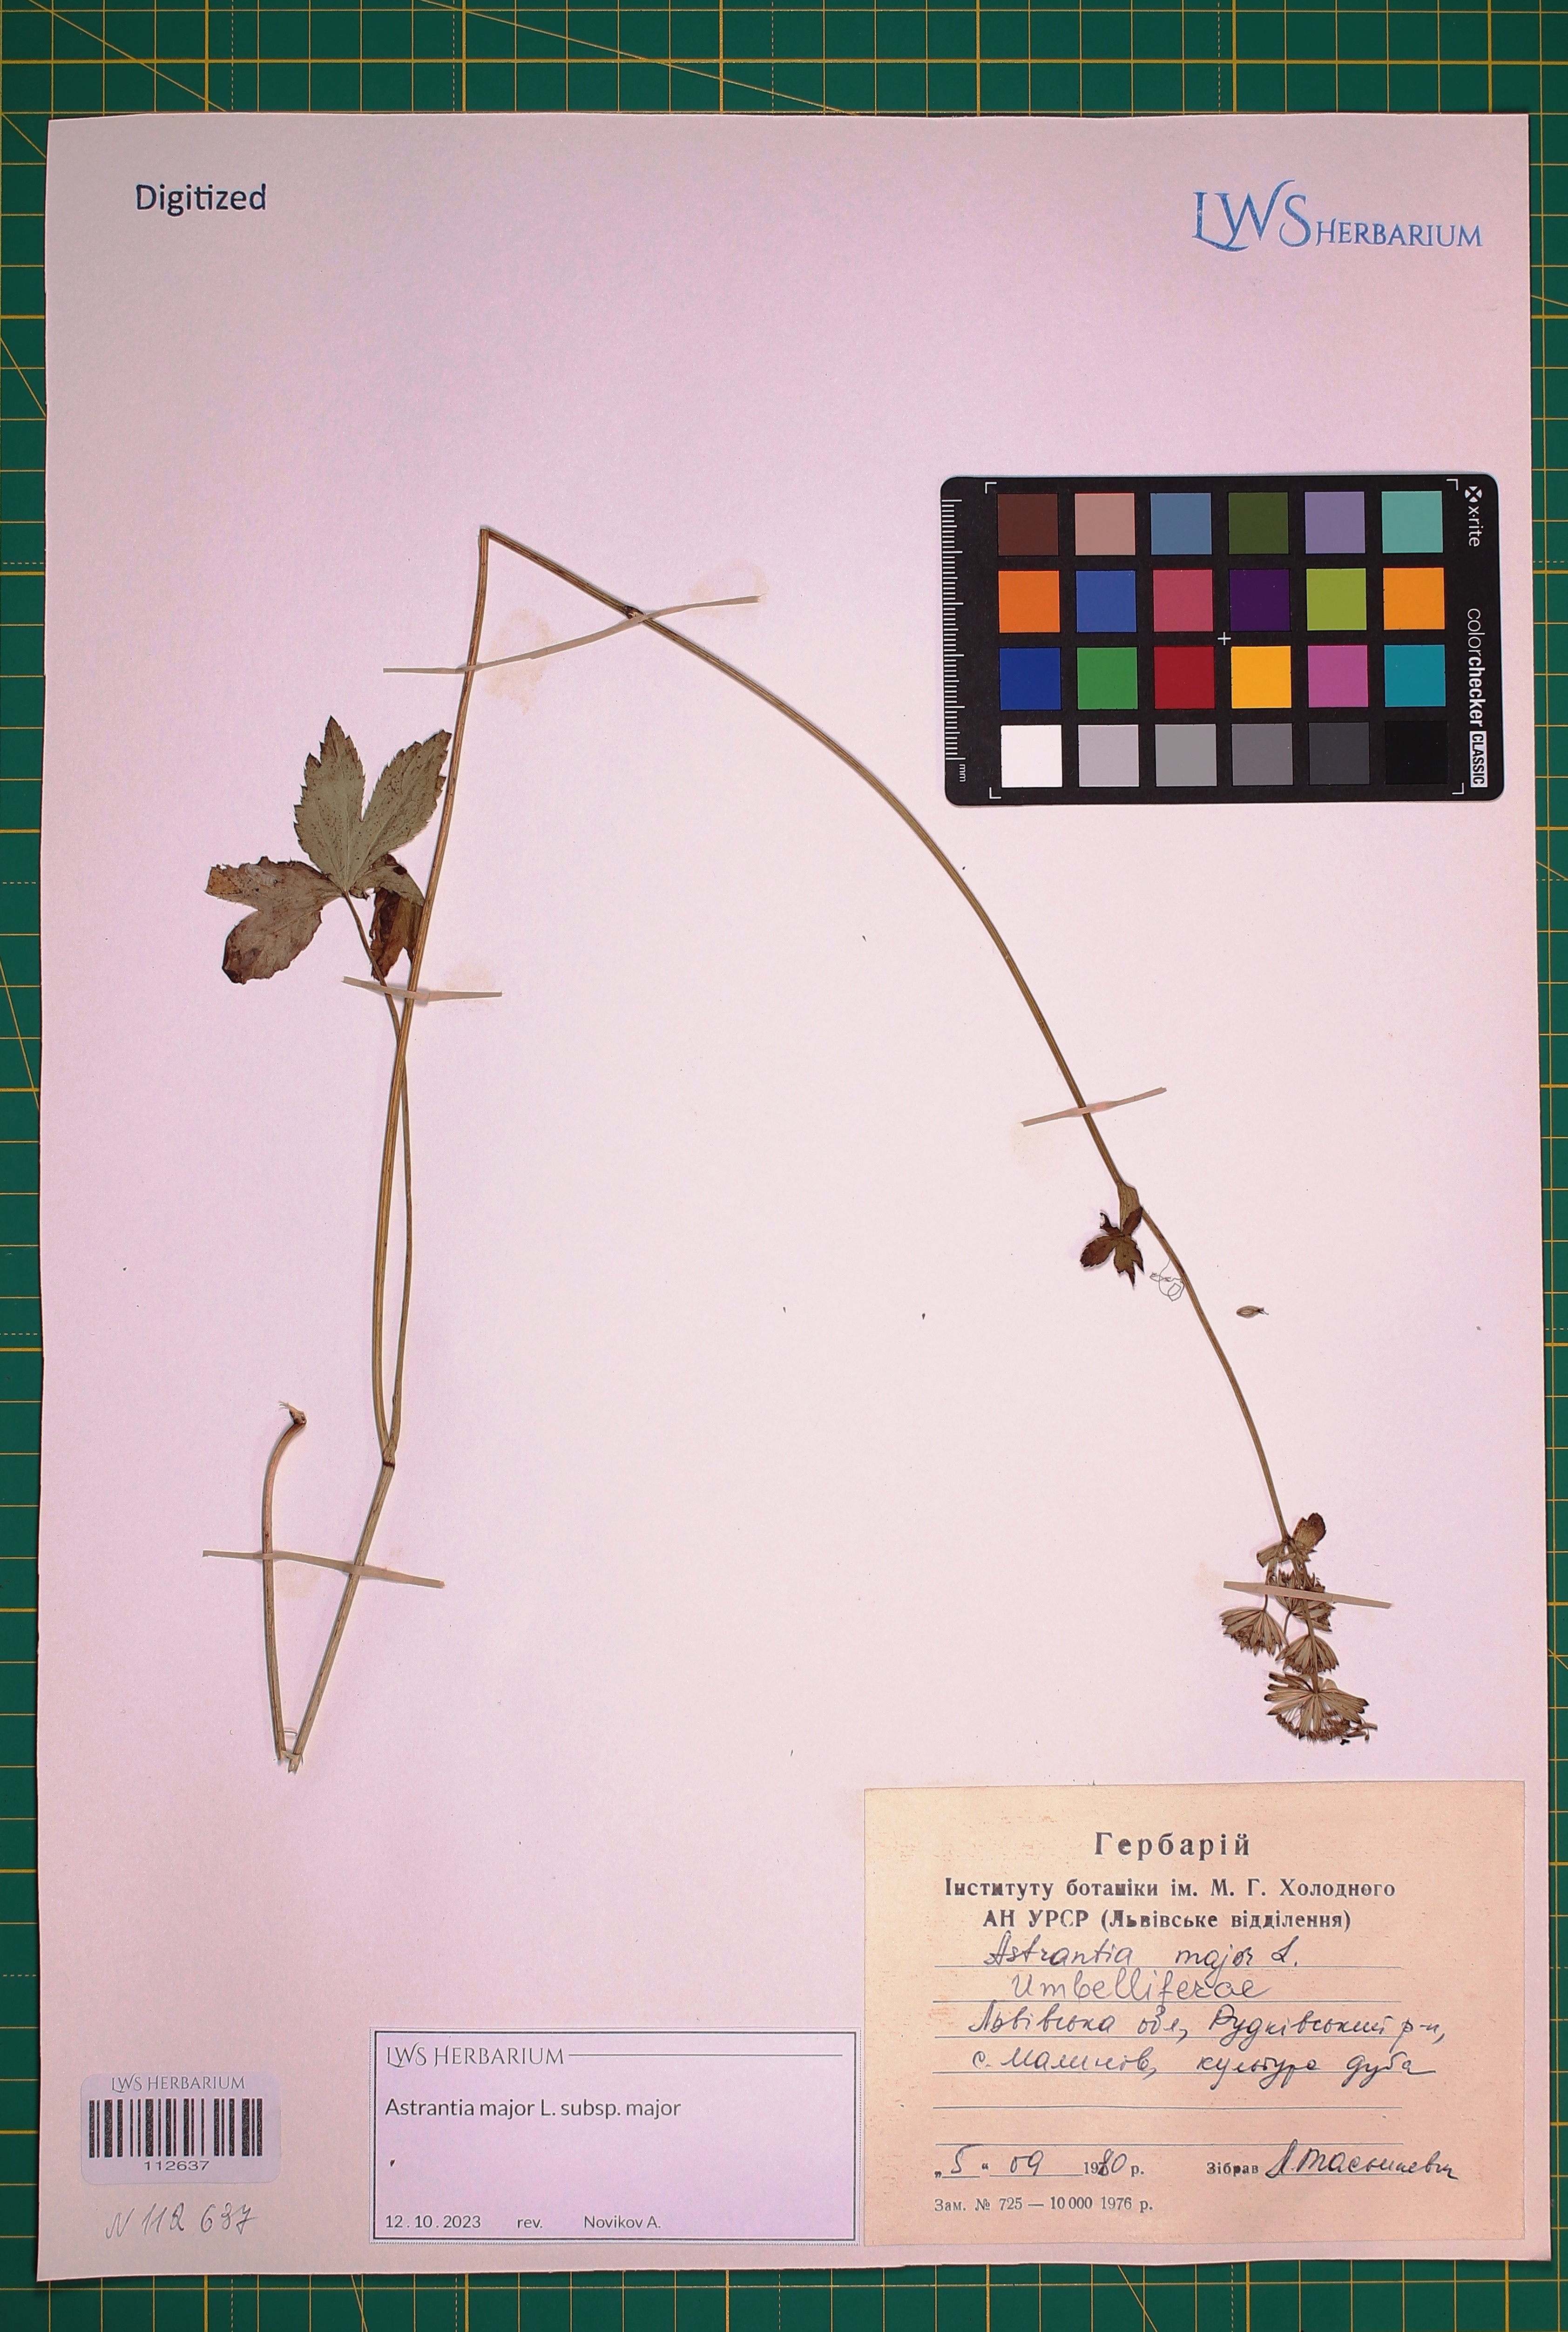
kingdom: Plantae
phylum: Tracheophyta
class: Magnoliopsida
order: Apiales
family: Apiaceae
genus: Astrantia
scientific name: Astrantia major
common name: Greater masterwort
